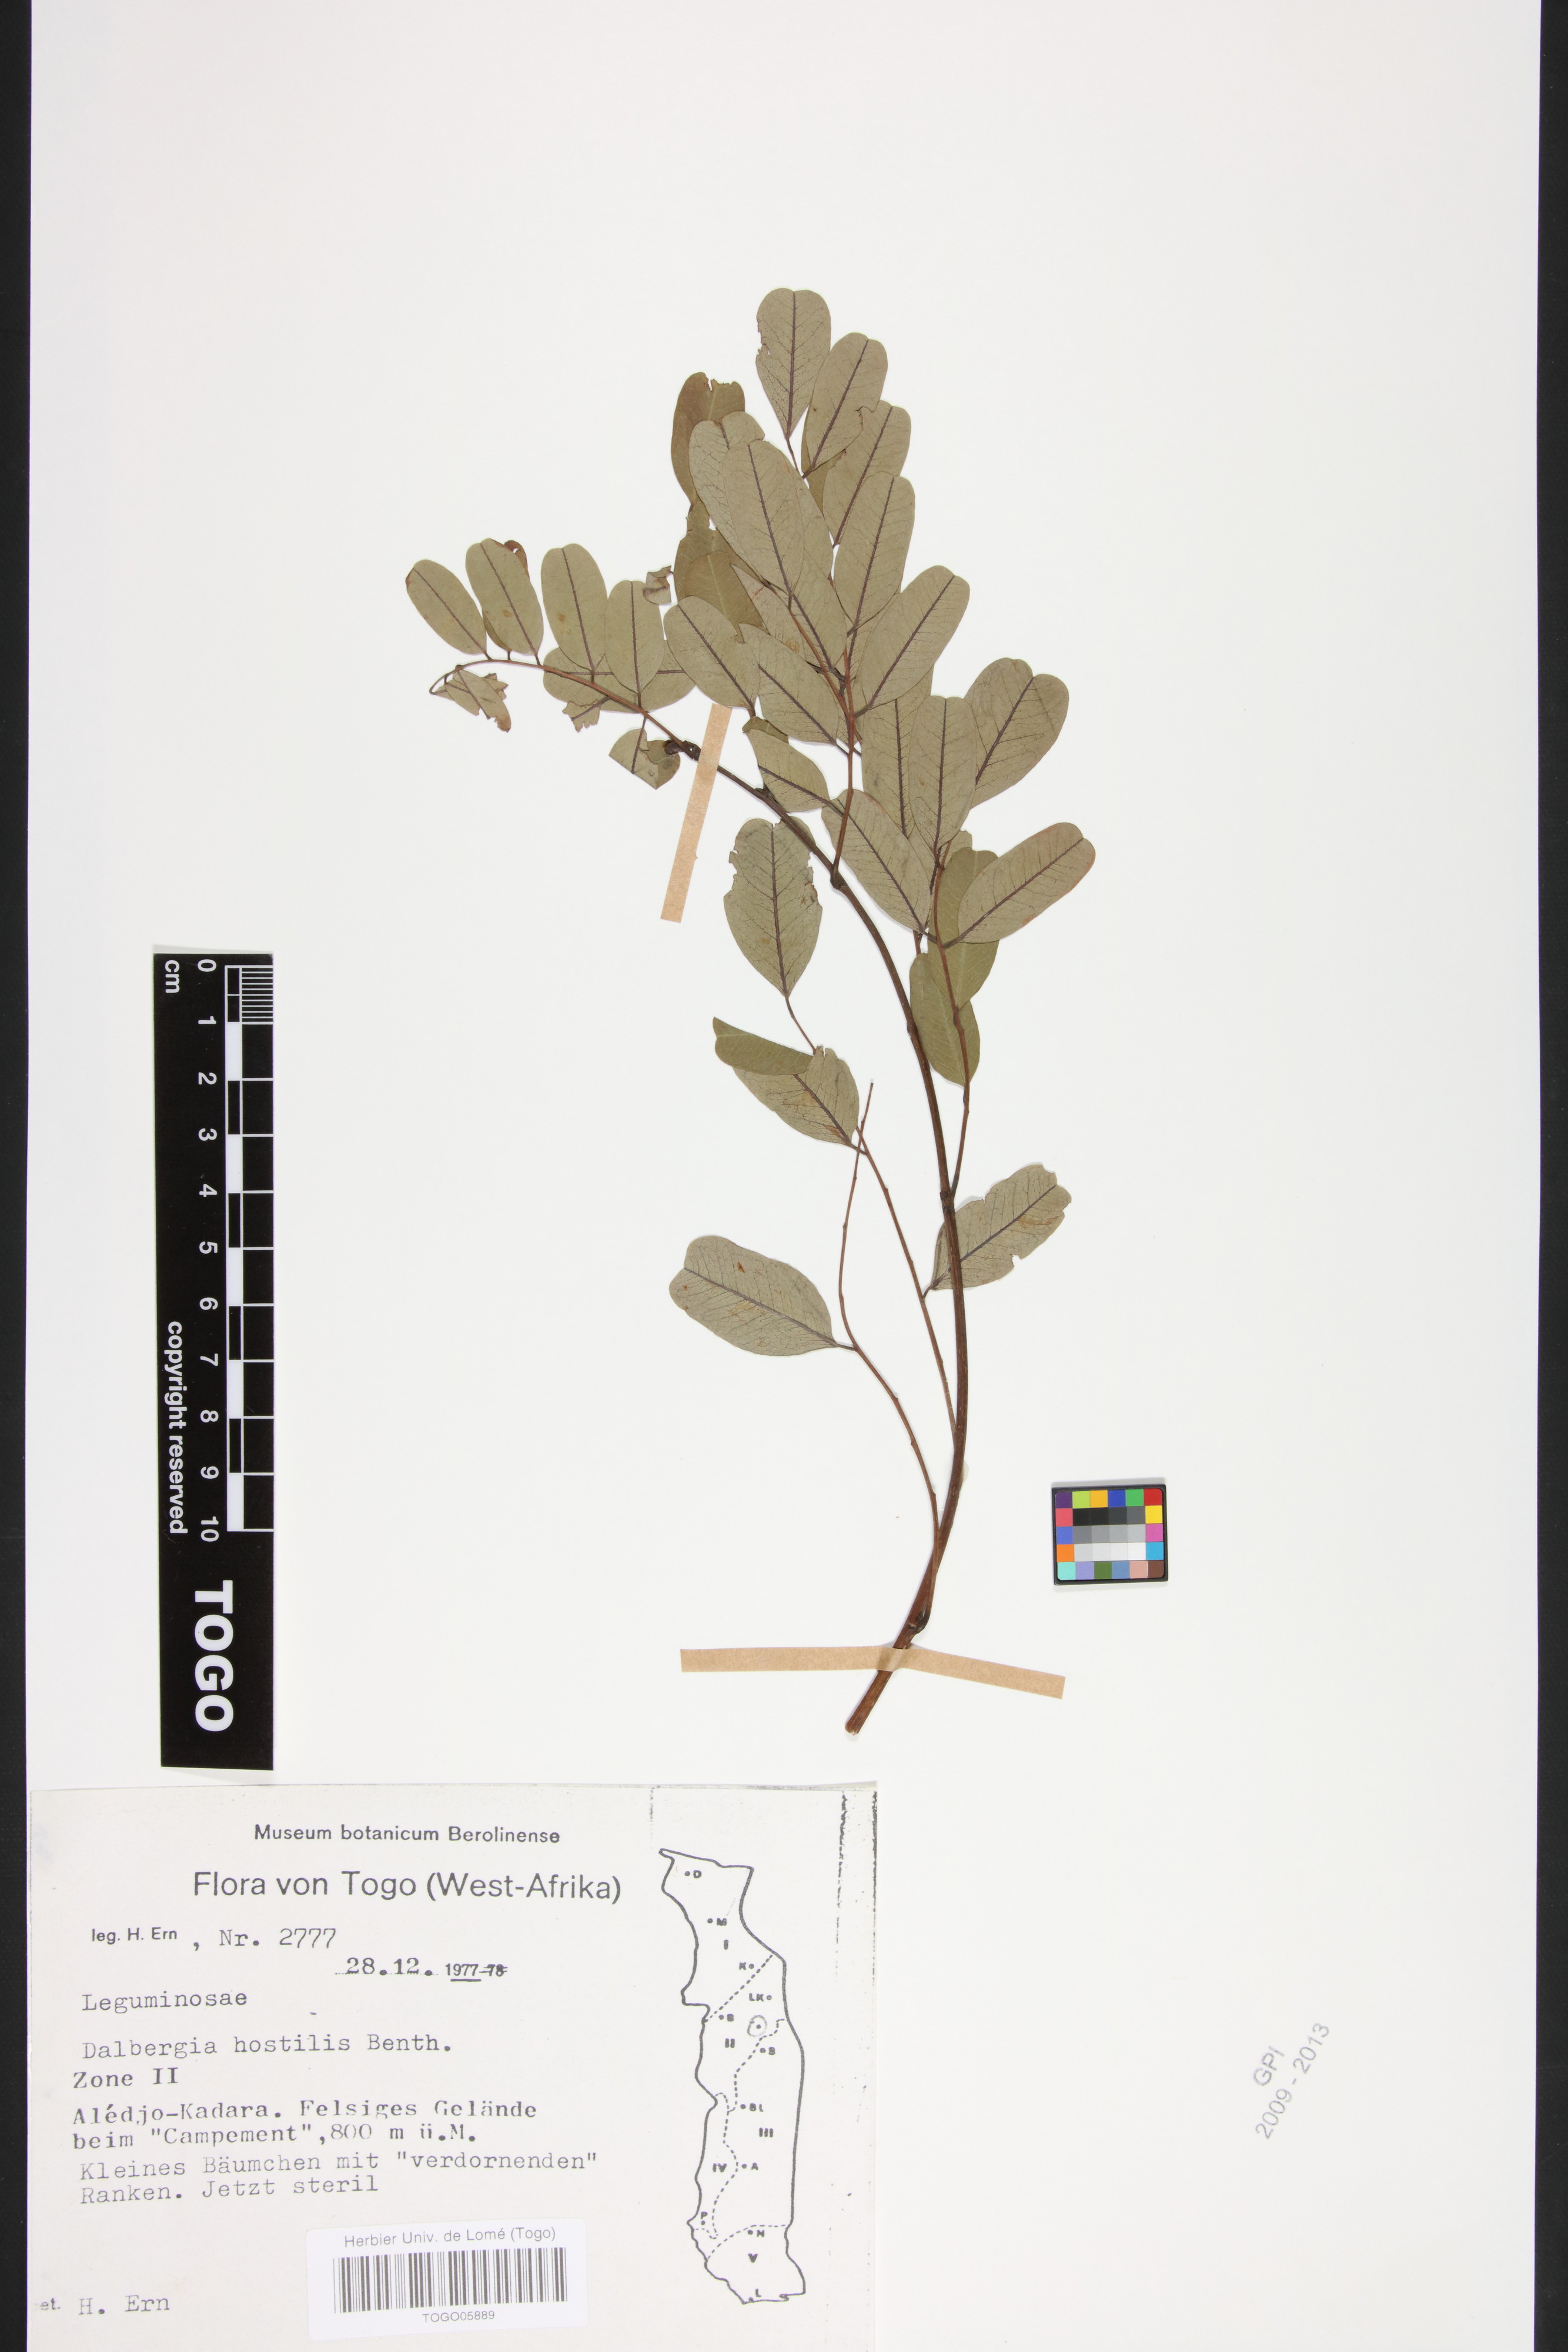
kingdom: Plantae
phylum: Tracheophyta
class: Magnoliopsida
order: Fabales
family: Fabaceae
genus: Dalbergia
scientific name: Dalbergia hostilis
